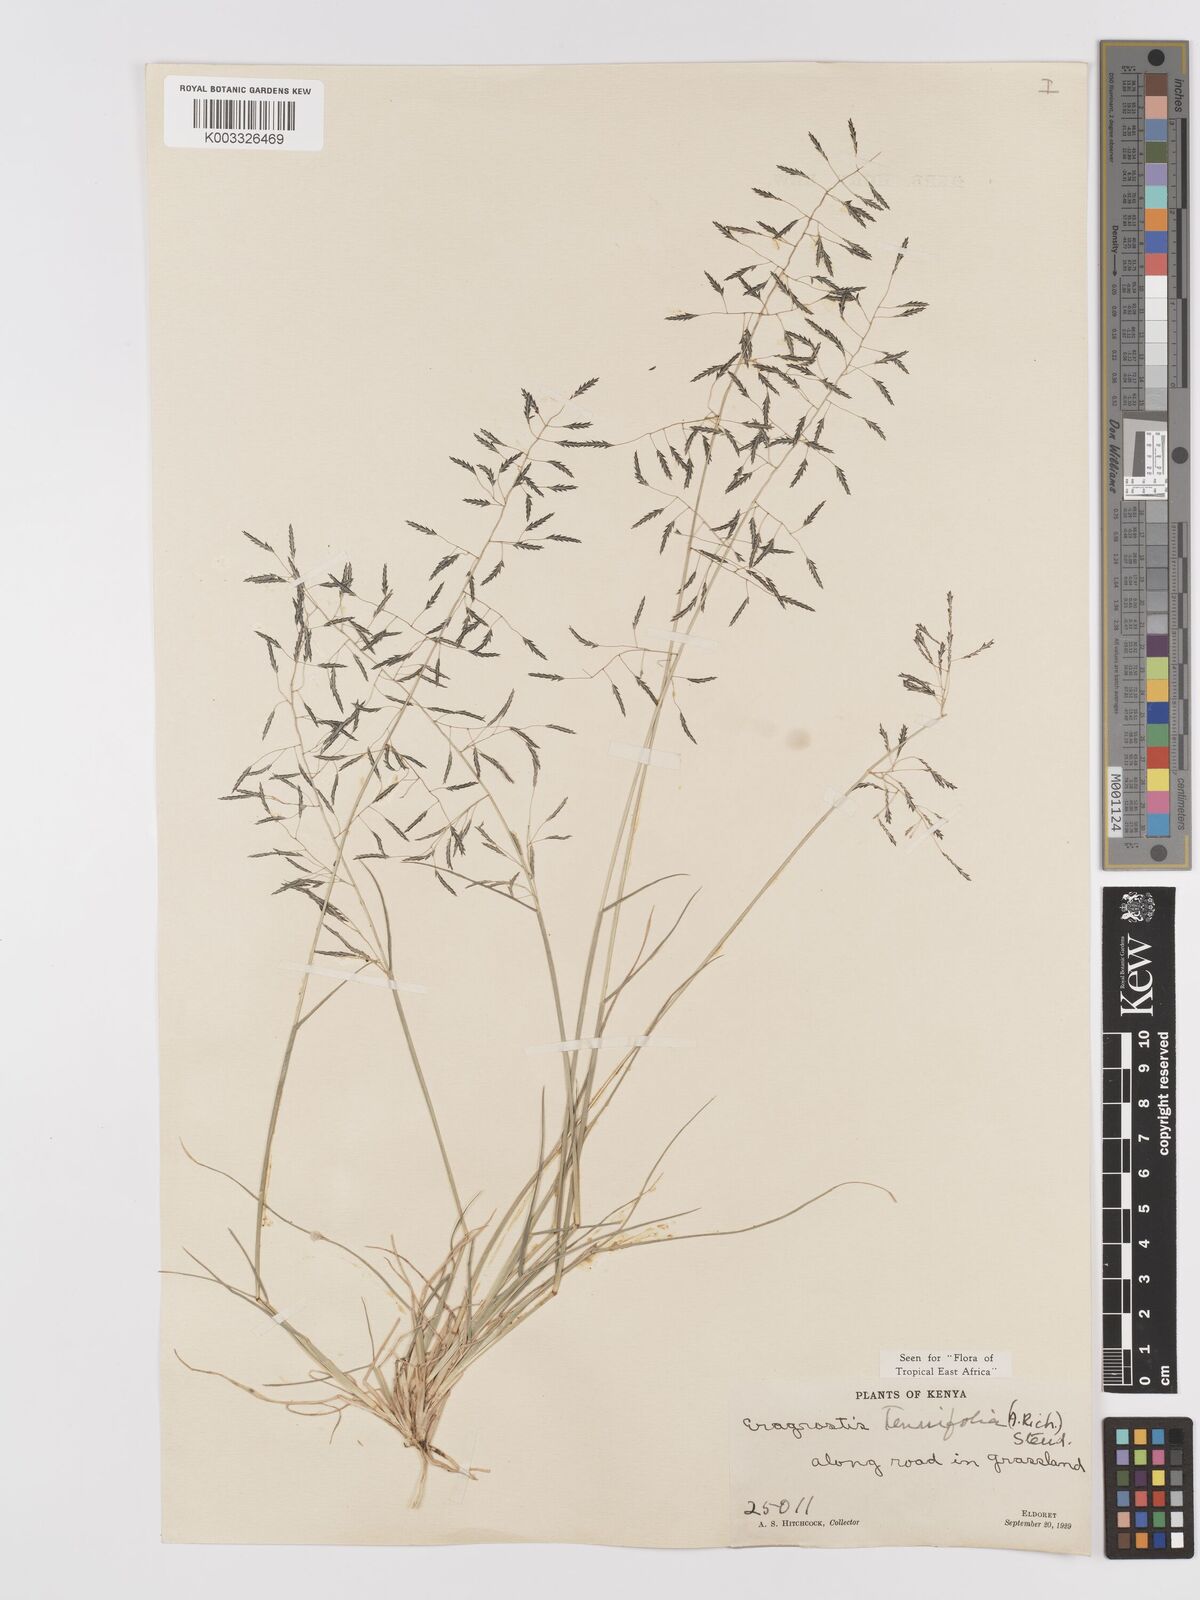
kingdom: Plantae
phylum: Tracheophyta
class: Liliopsida
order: Poales
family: Poaceae
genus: Eragrostis
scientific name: Eragrostis tenuifolia
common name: Elastic grass
